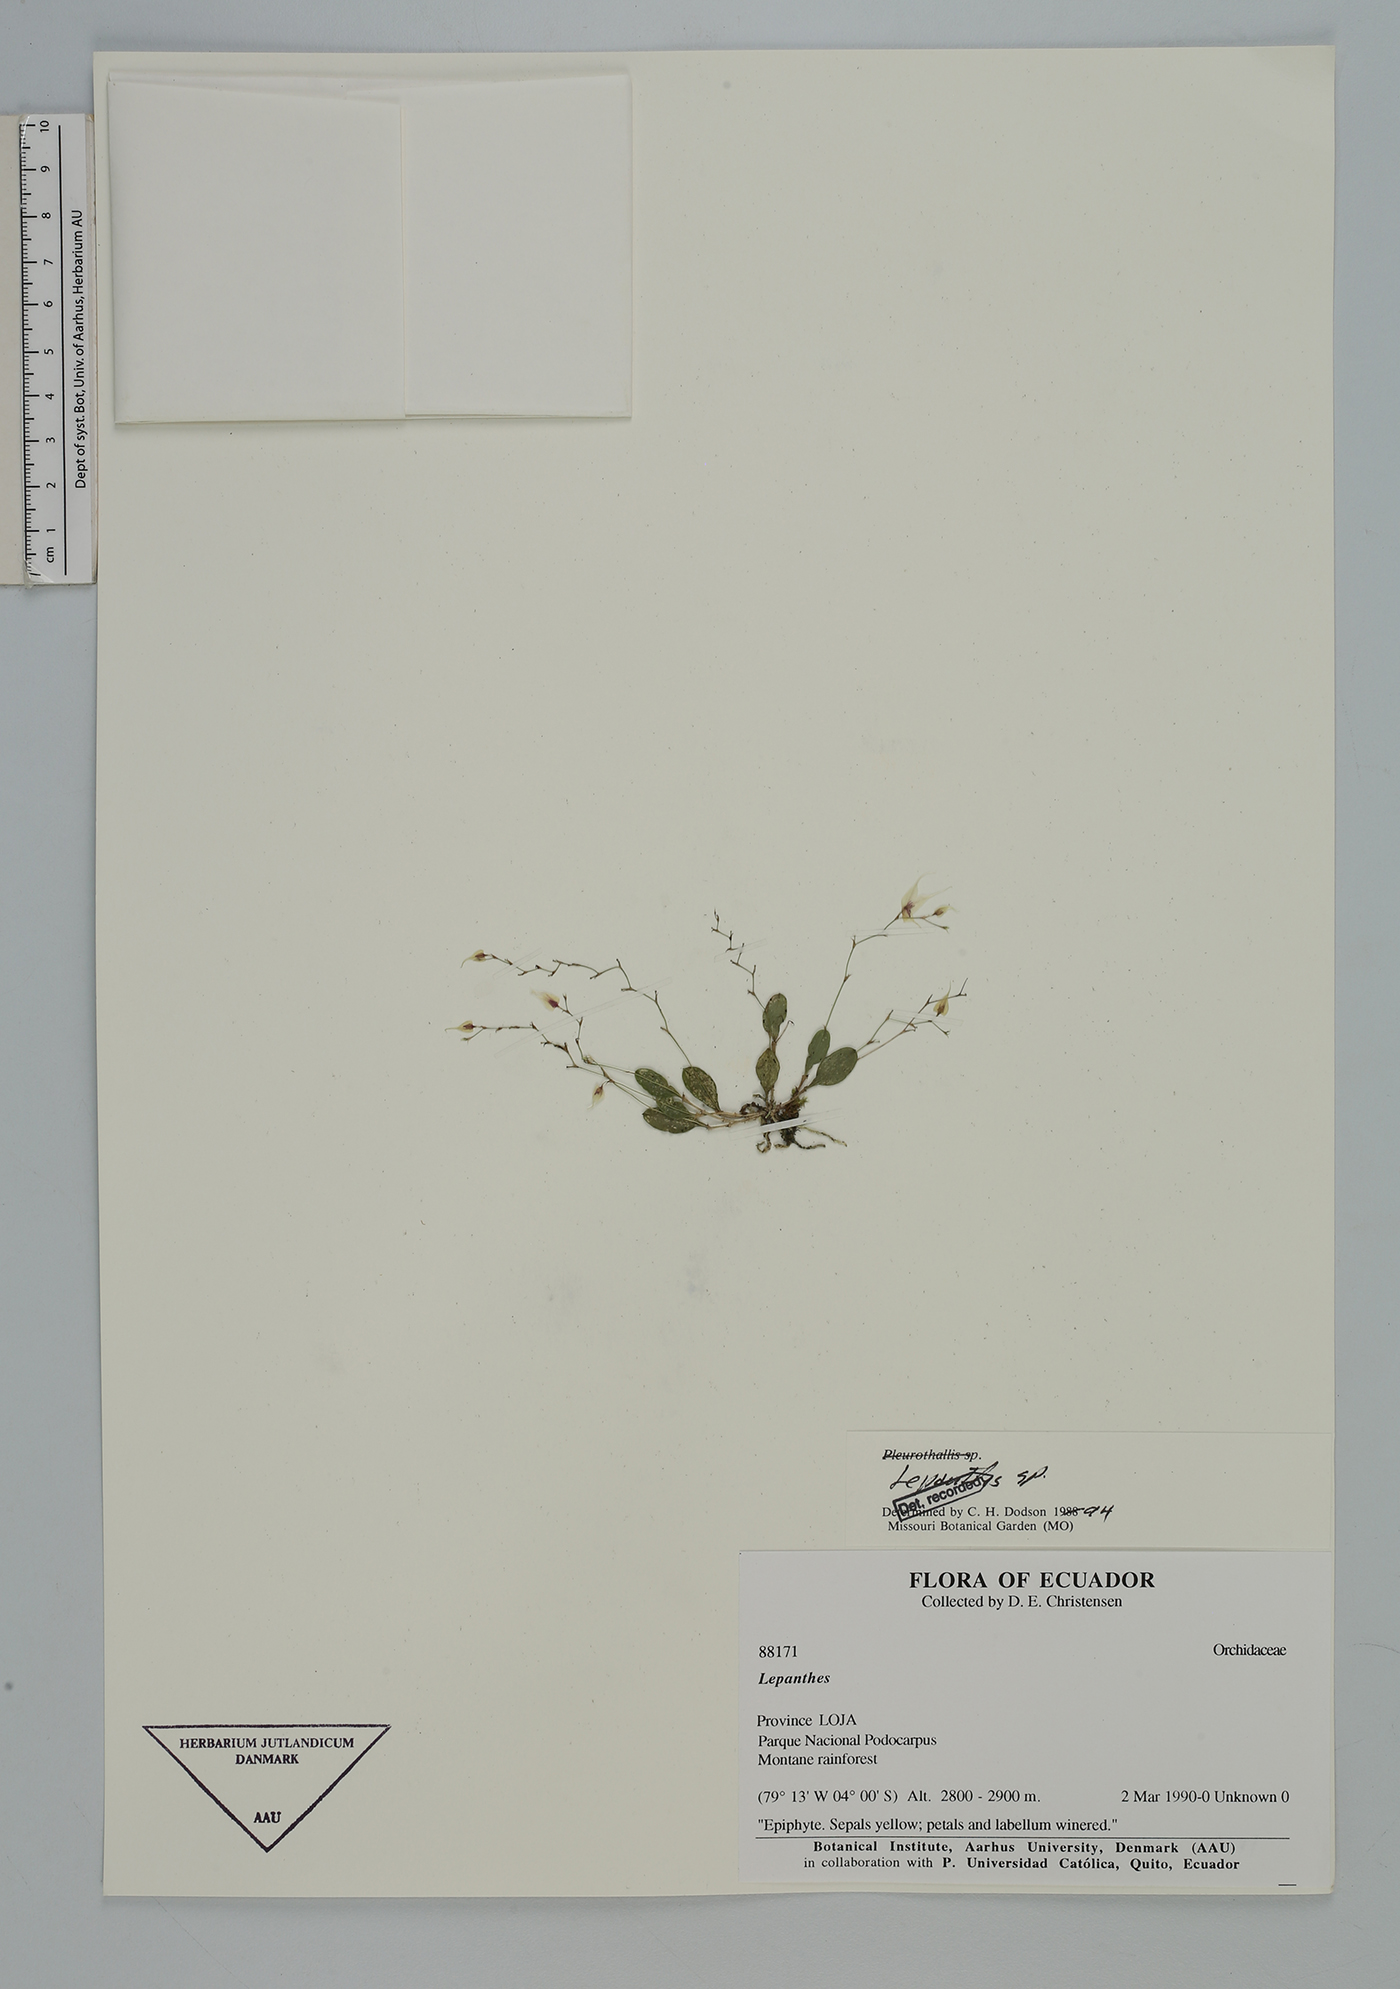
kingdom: Plantae
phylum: Tracheophyta
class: Liliopsida
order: Asparagales
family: Orchidaceae
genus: Lepanthes
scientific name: Lepanthes
